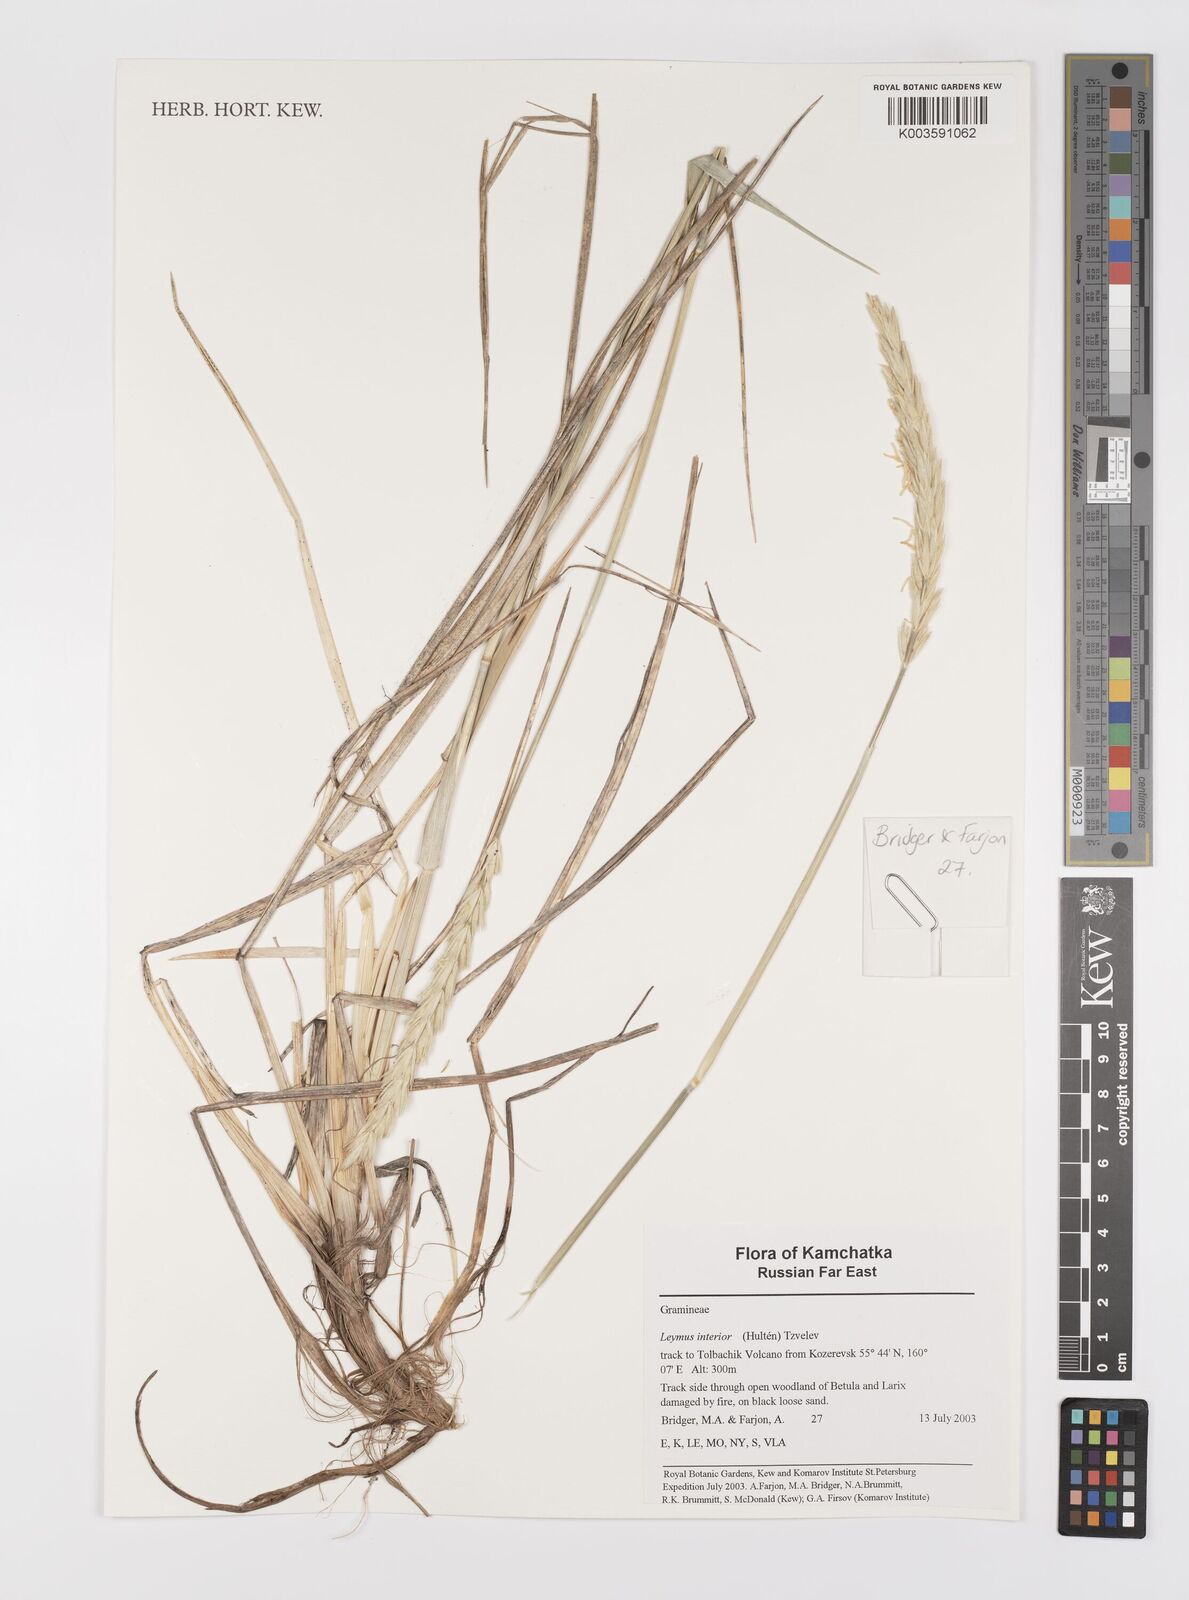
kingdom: Plantae
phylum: Tracheophyta
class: Liliopsida
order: Poales
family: Poaceae
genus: Leymus
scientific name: Leymus ajanensis
